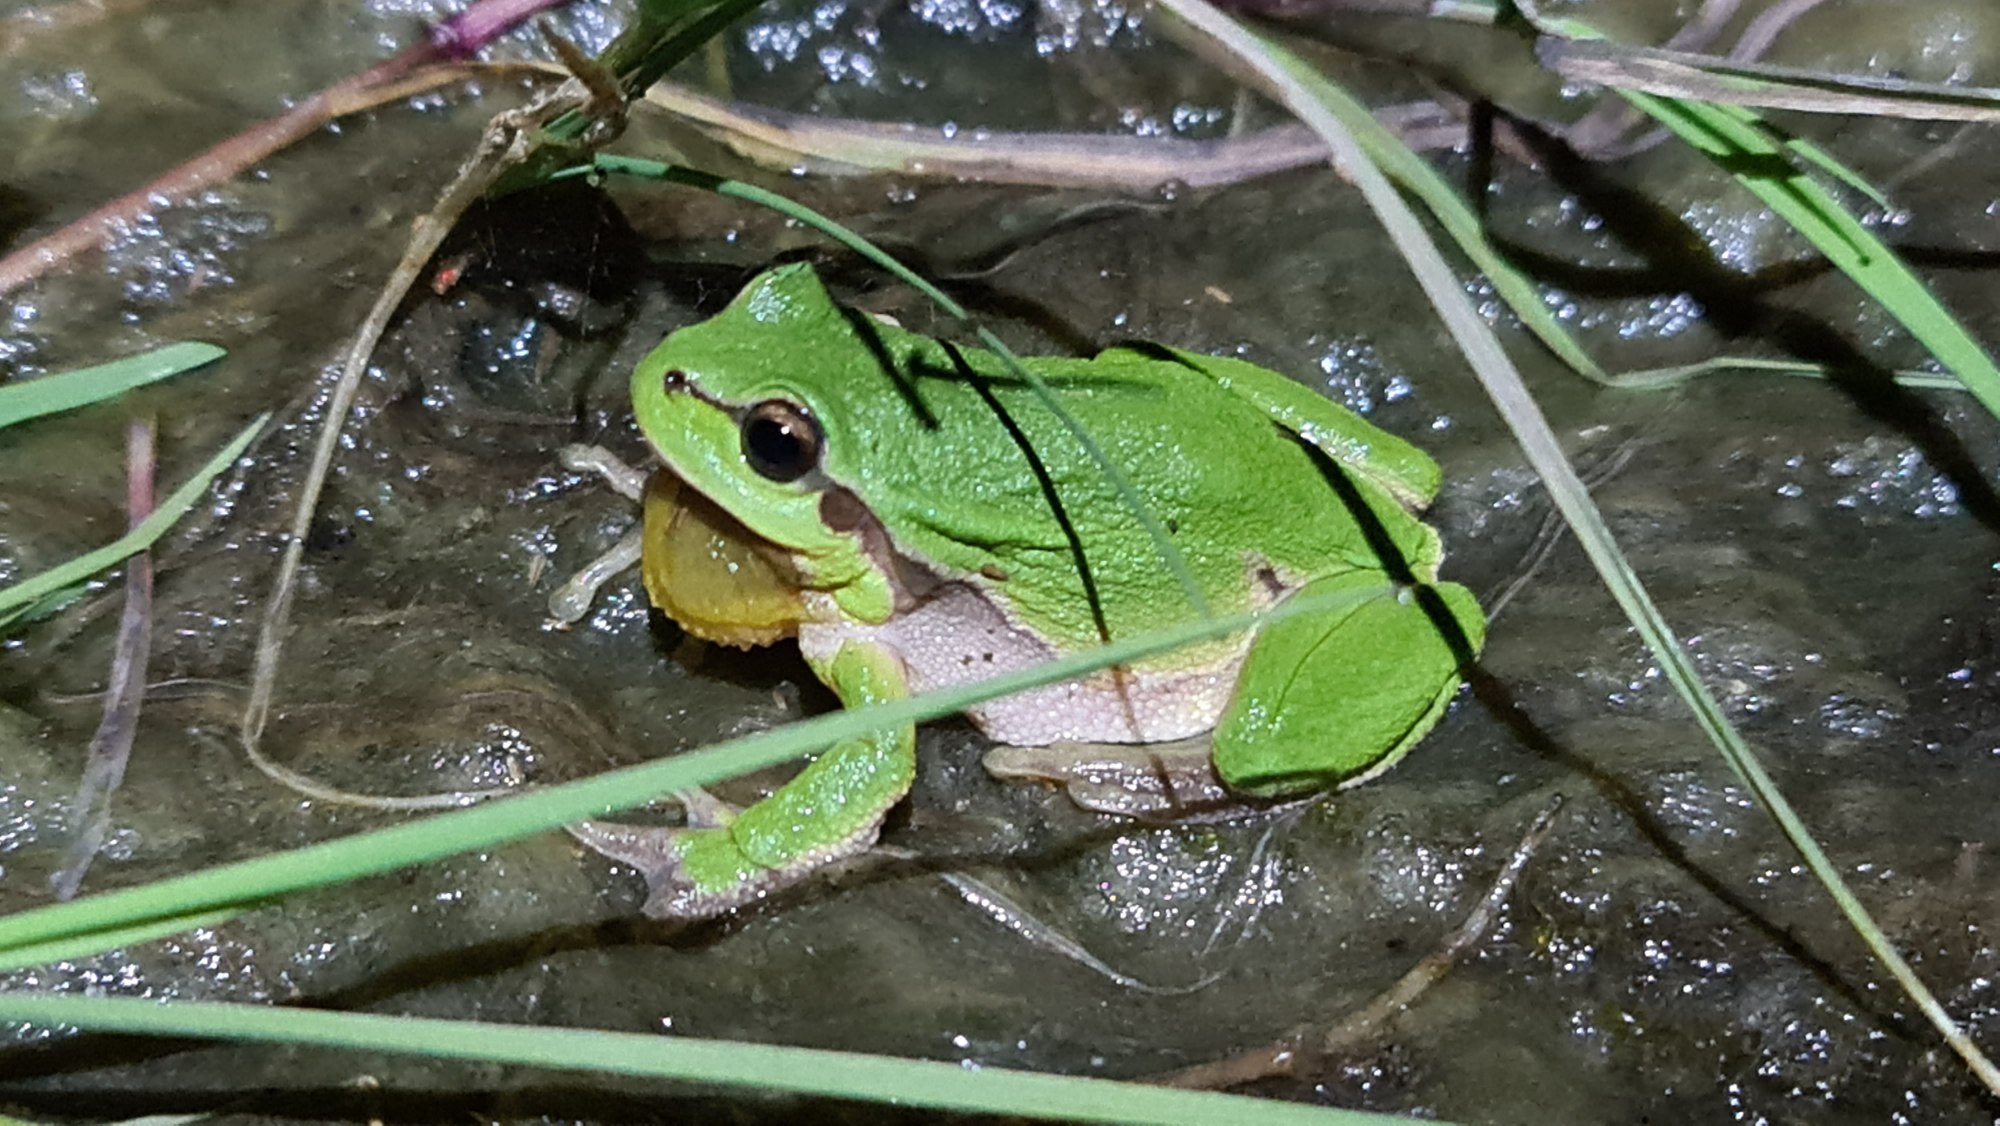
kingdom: Animalia
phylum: Chordata
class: Amphibia
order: Anura
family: Hylidae
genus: Hyla
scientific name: Hyla arborea
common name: Løvfrø
